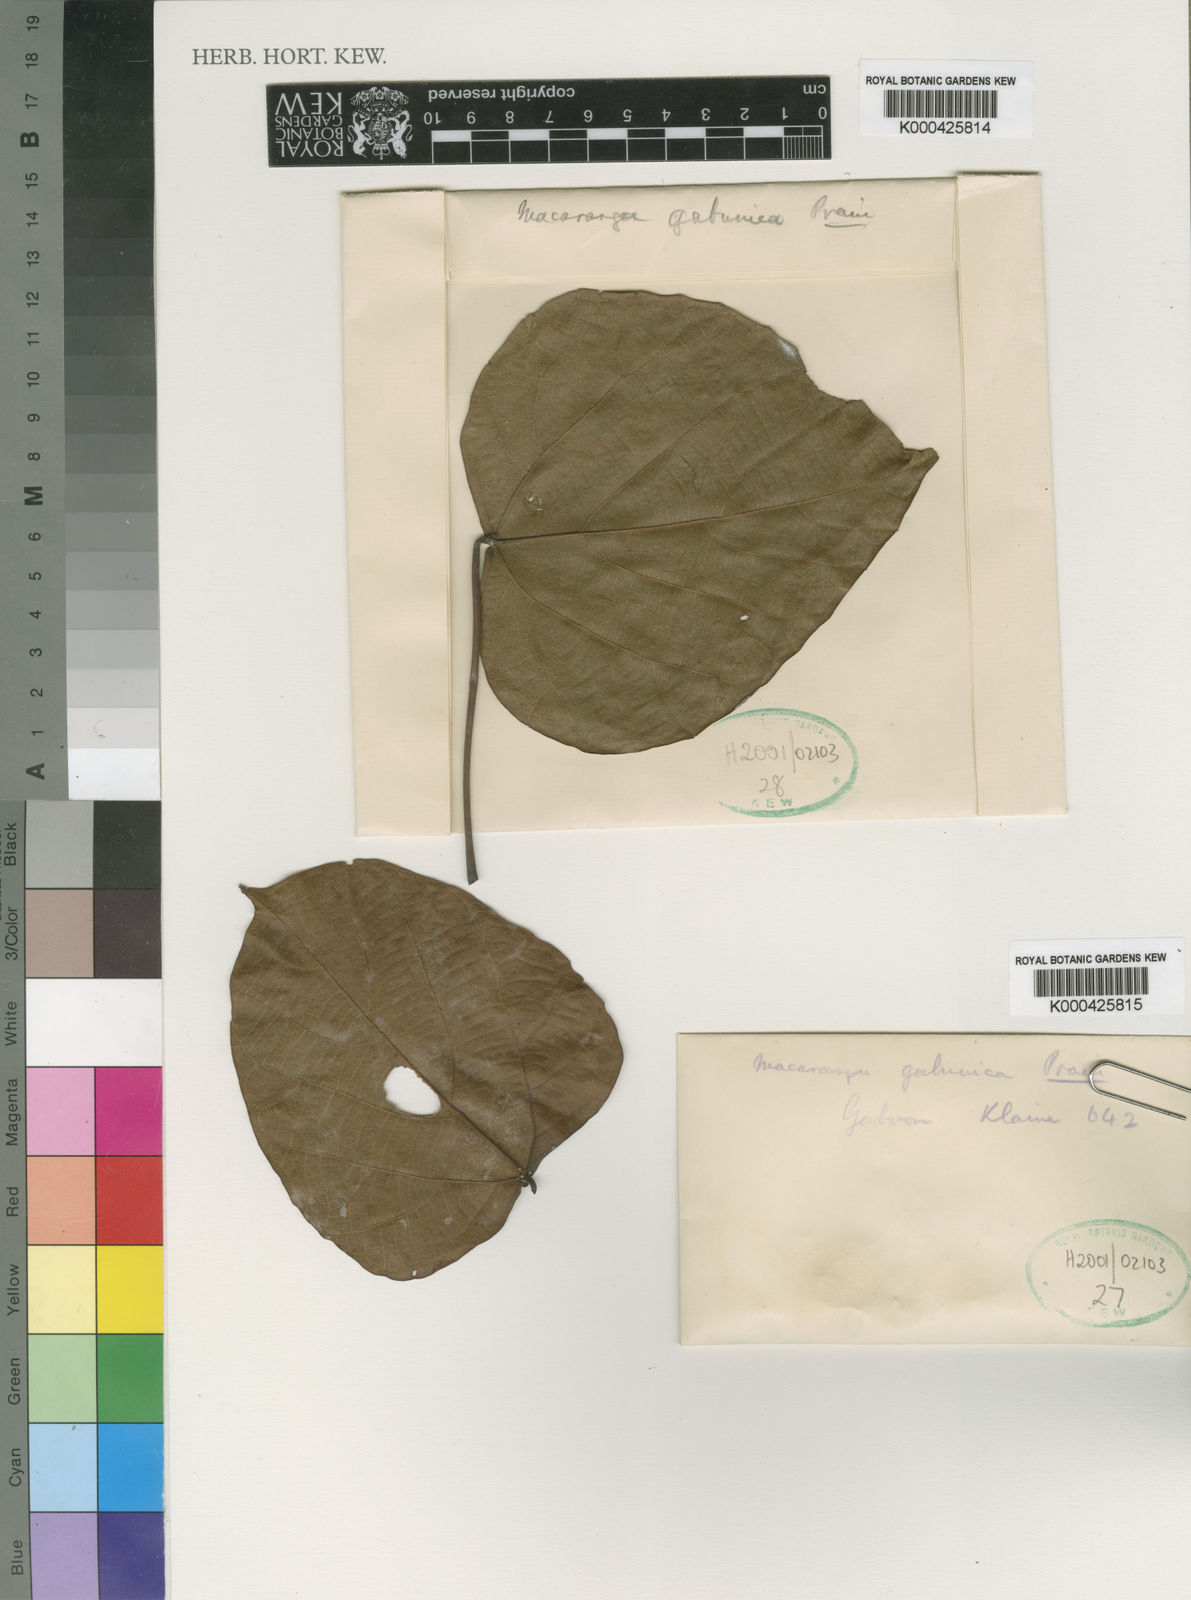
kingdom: Plantae
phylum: Tracheophyta
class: Magnoliopsida
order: Malpighiales
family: Euphorbiaceae
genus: Macaranga
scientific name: Macaranga gabunica
